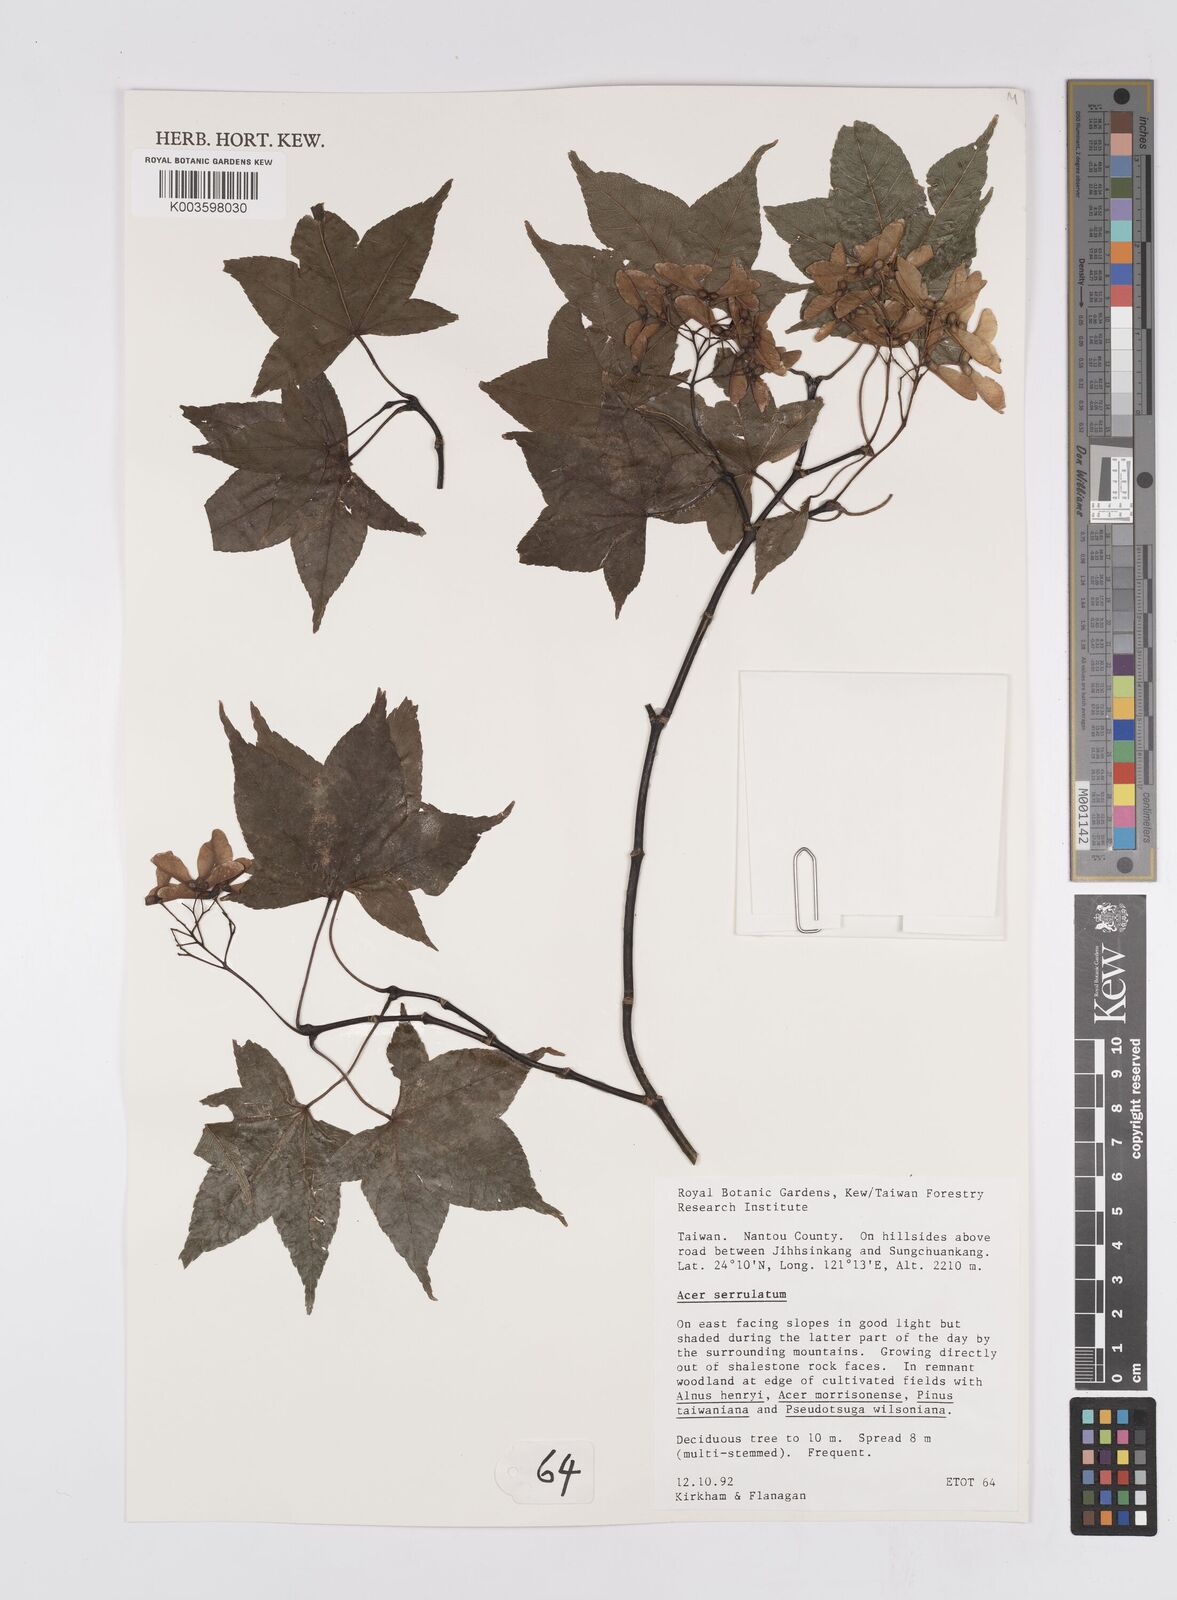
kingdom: Plantae
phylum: Tracheophyta
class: Magnoliopsida
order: Sapindales
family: Sapindaceae
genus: Acer
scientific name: Acer serrulatum
